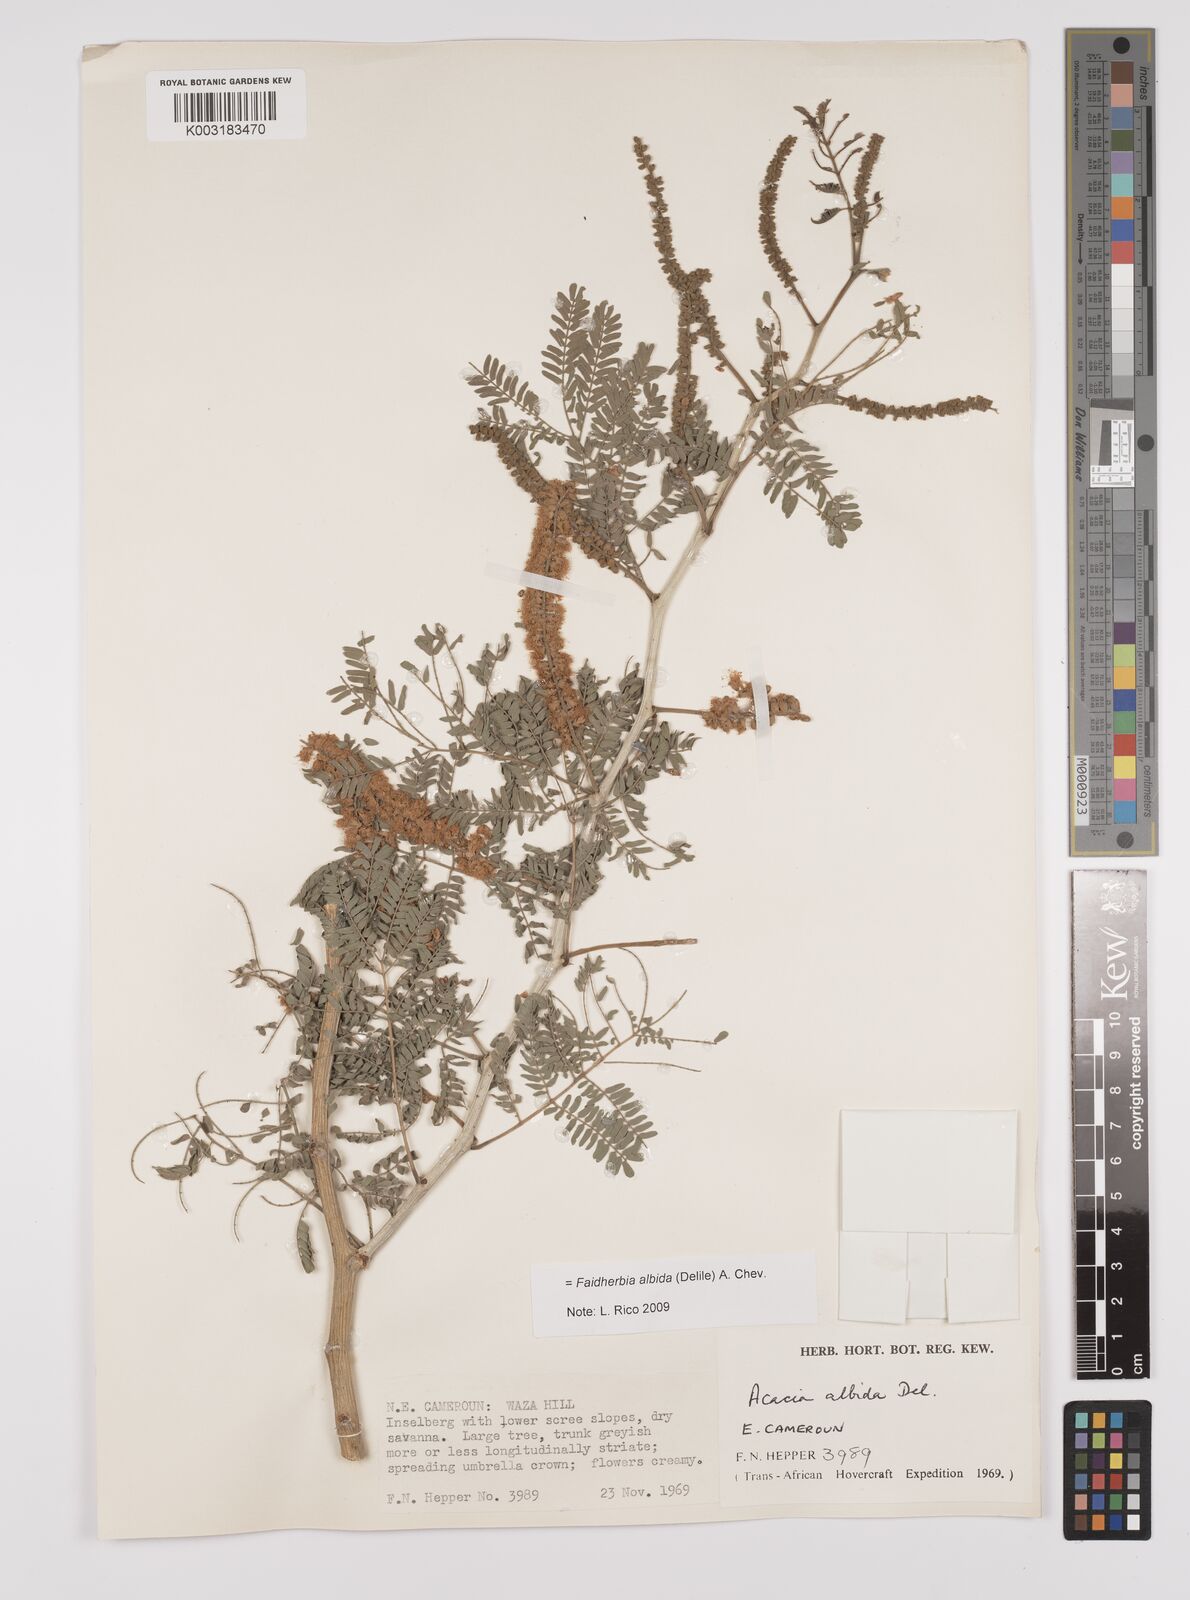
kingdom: Plantae
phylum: Tracheophyta
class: Magnoliopsida
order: Fabales
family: Fabaceae
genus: Faidherbia
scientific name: Faidherbia albida
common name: Anatree
